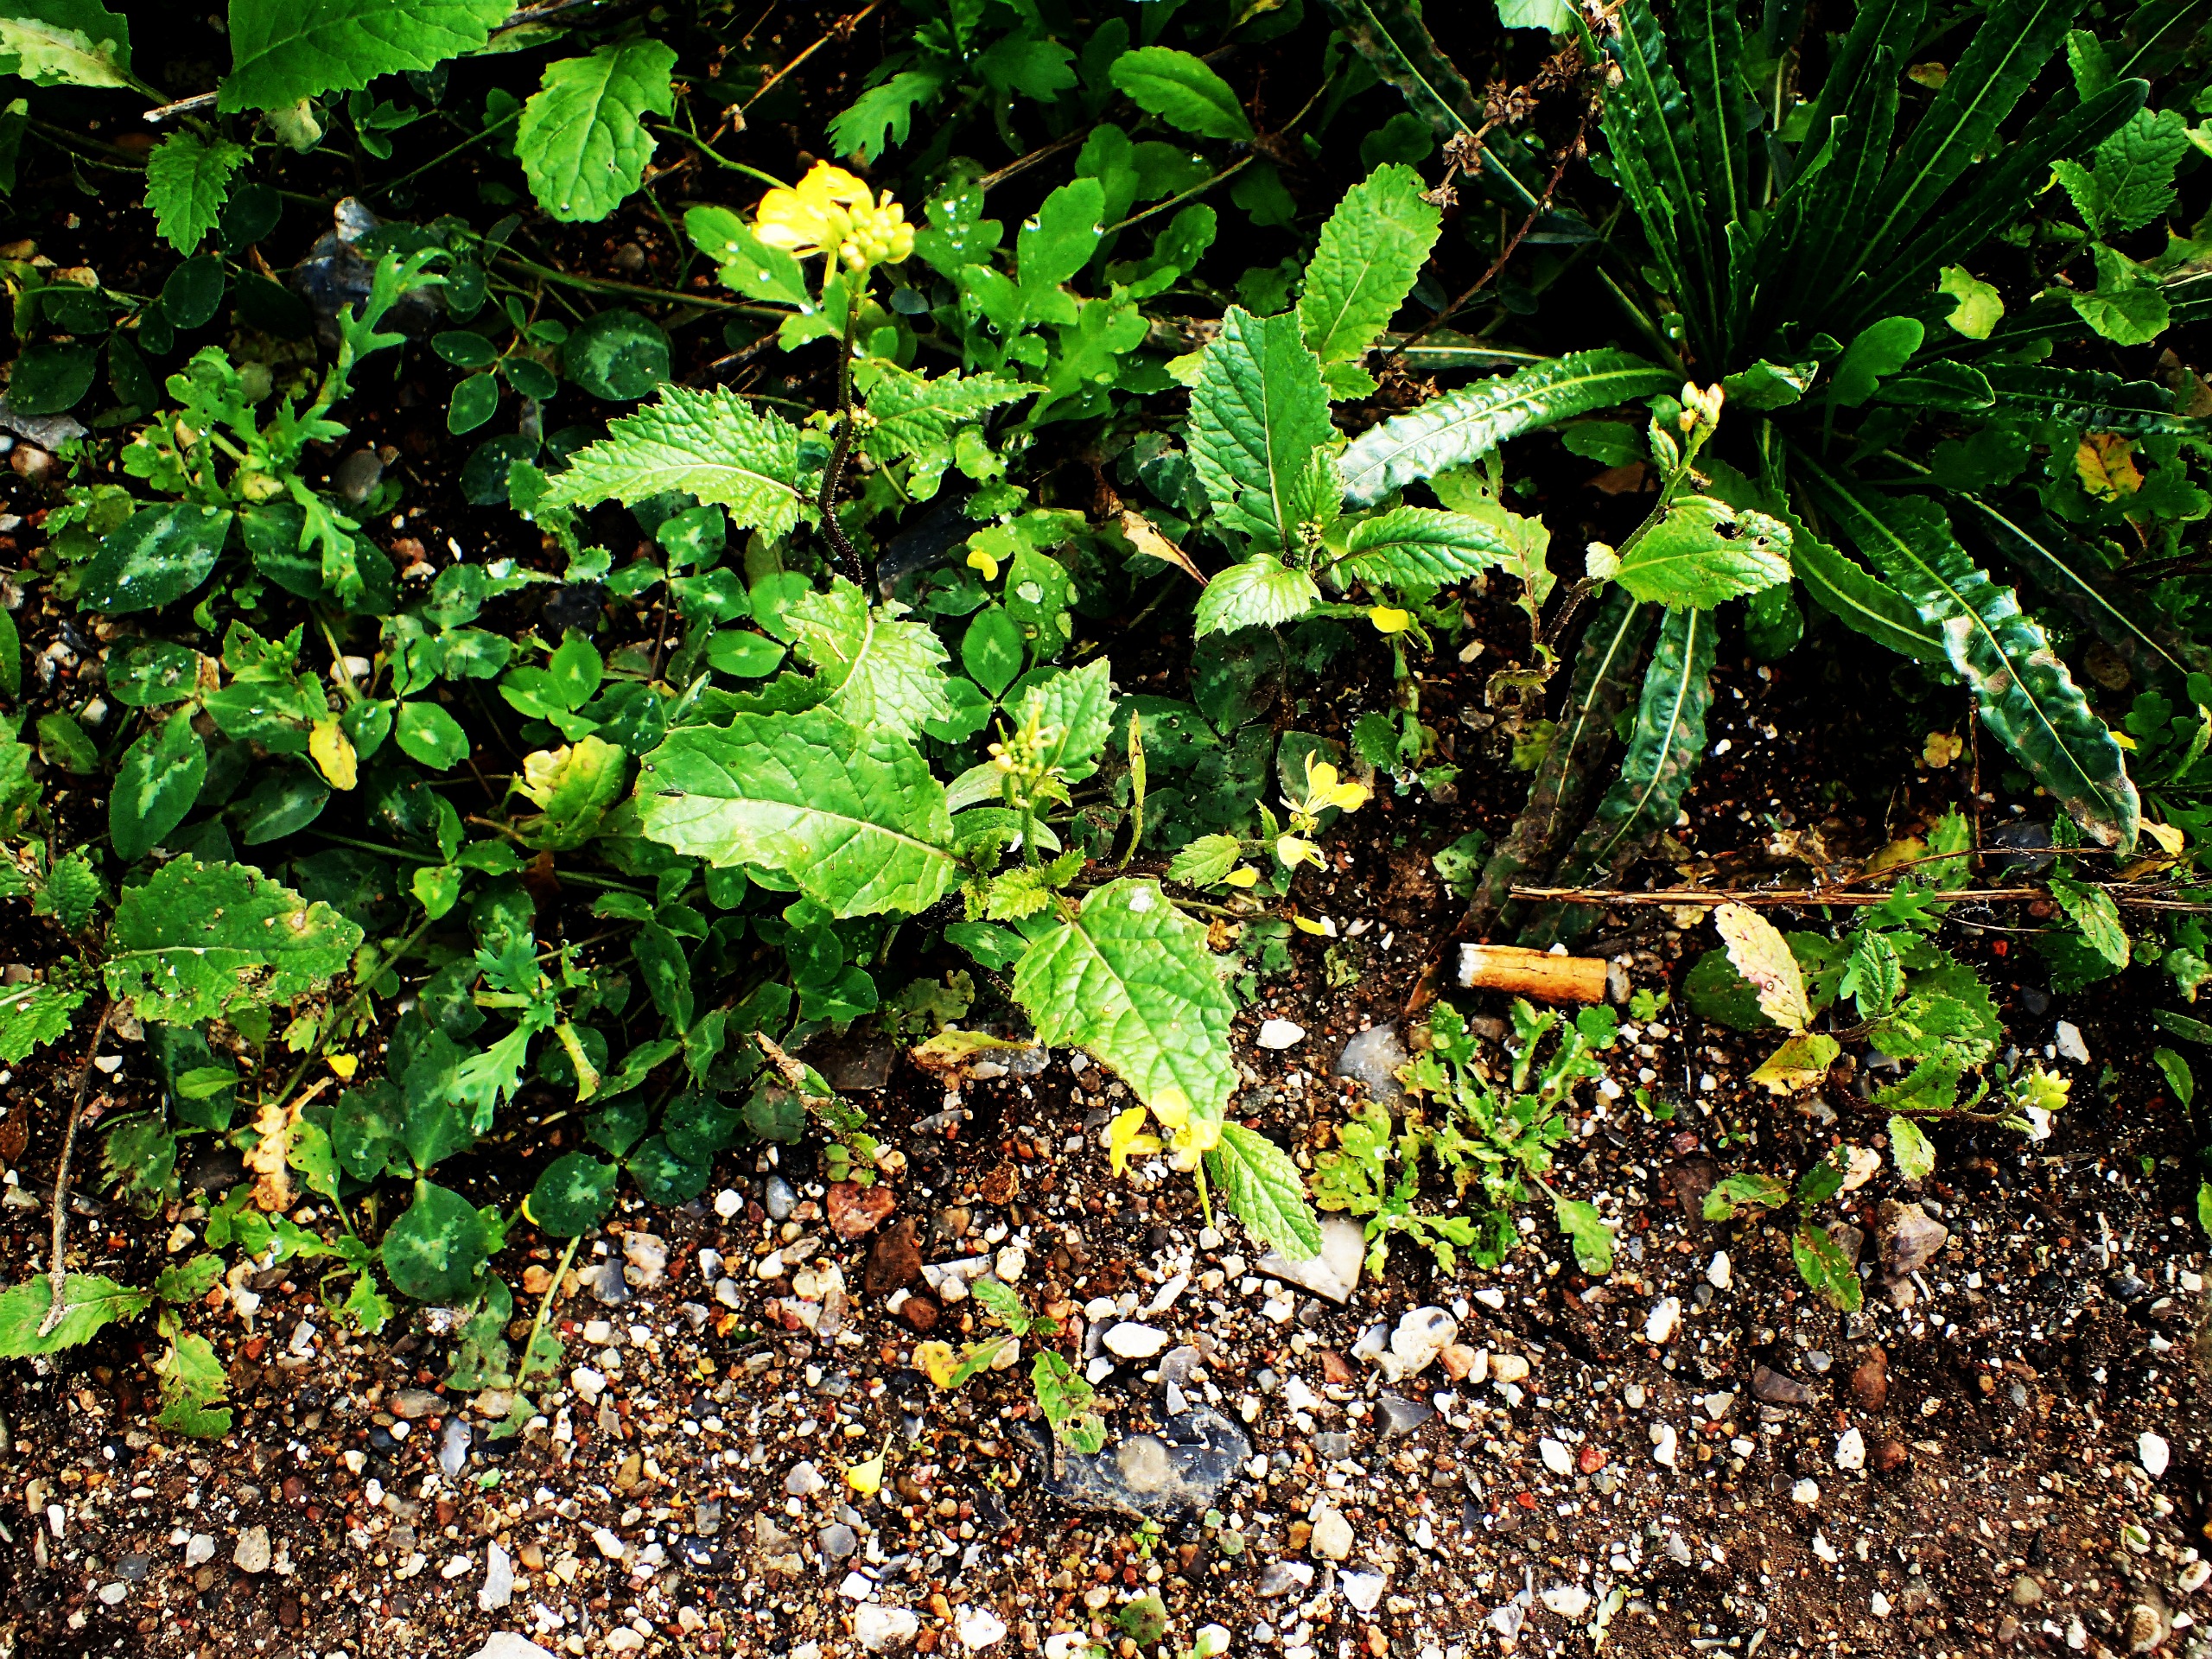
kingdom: Plantae
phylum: Tracheophyta
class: Magnoliopsida
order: Brassicales
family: Brassicaceae
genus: Sinapis
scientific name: Sinapis arvensis
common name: Ager-sennep
